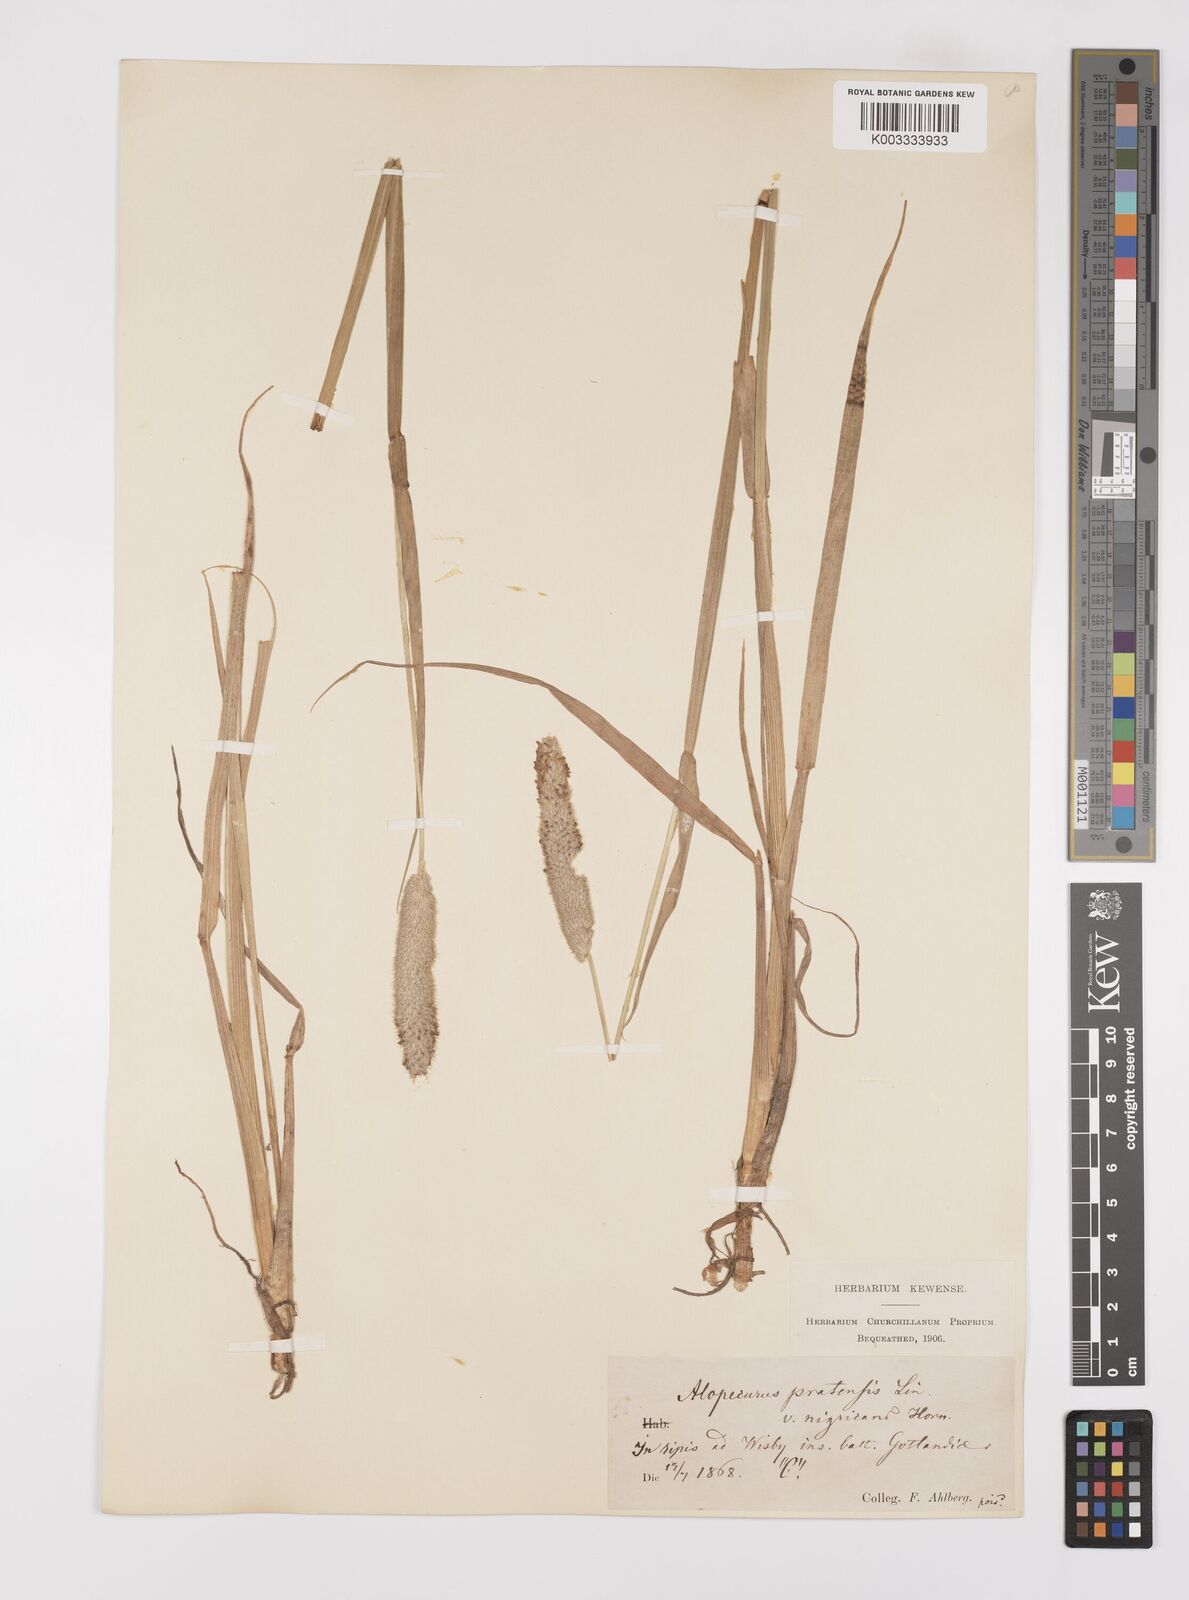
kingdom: Plantae
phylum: Tracheophyta
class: Liliopsida
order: Poales
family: Poaceae
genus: Alopecurus
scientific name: Alopecurus arundinaceus
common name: Creeping meadow foxtail
